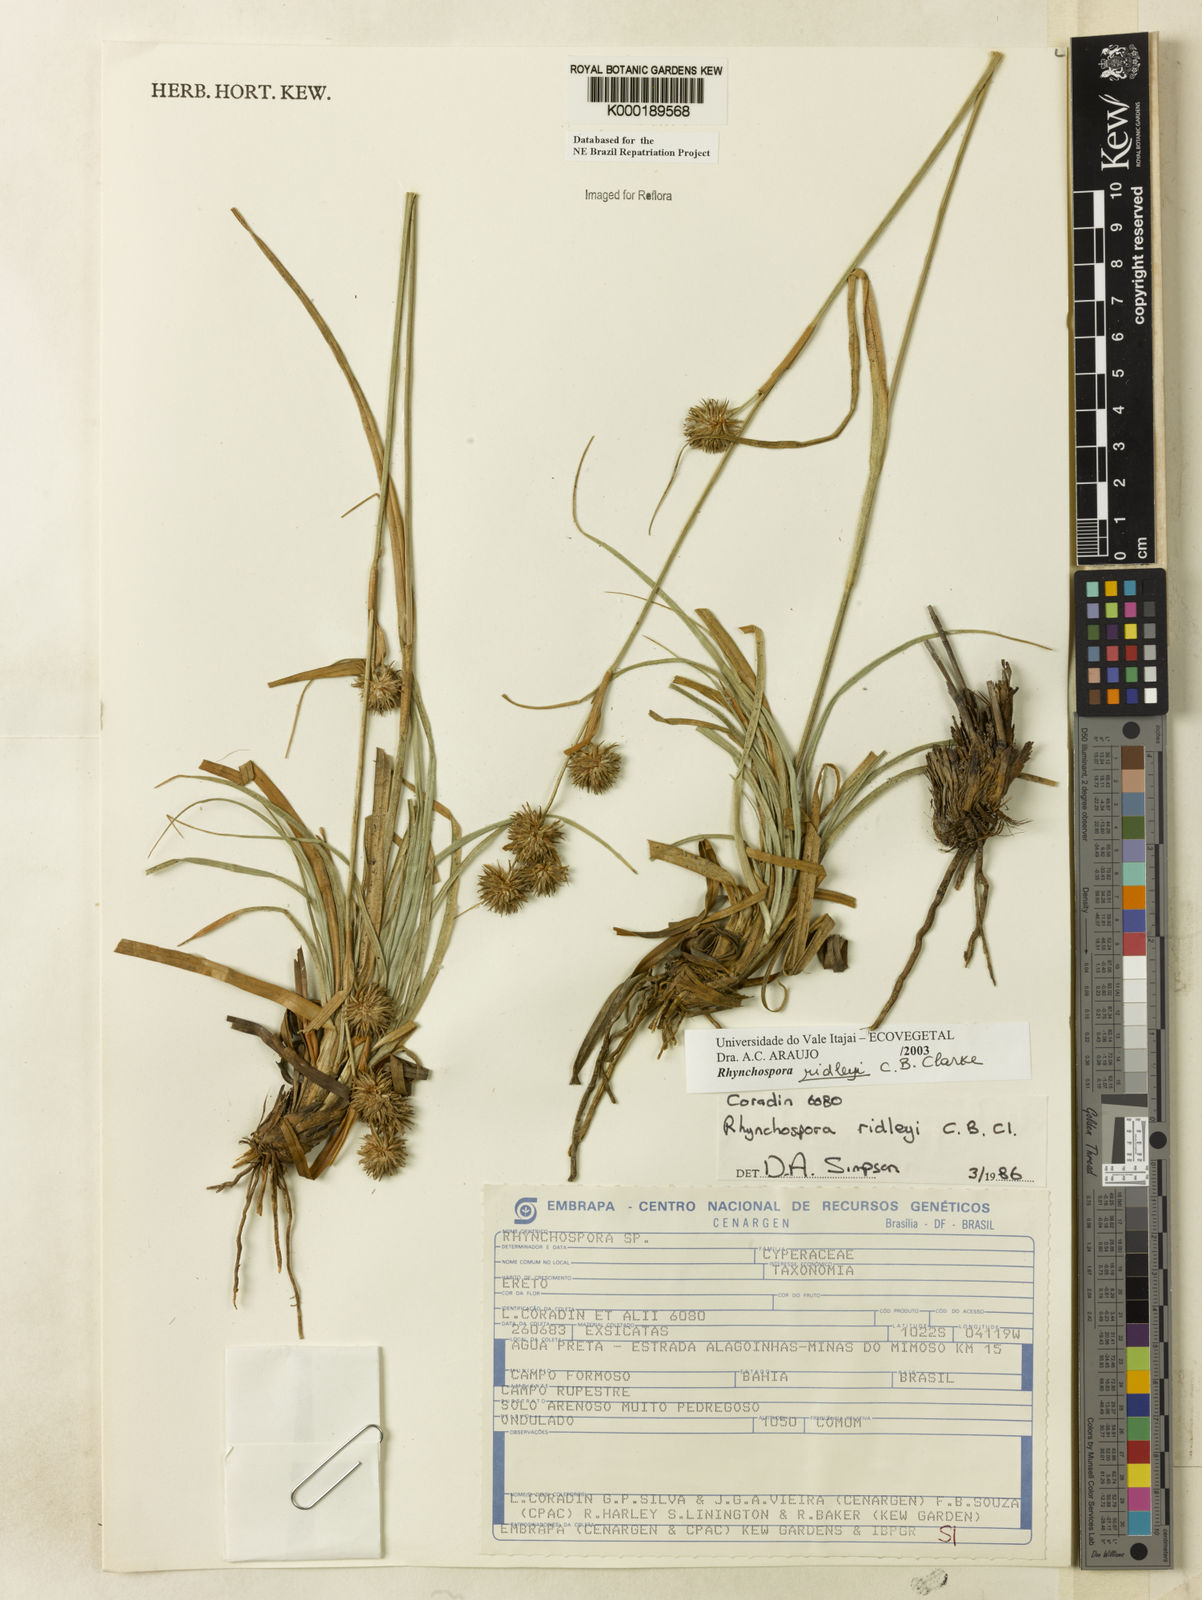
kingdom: Plantae
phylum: Tracheophyta
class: Liliopsida
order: Poales
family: Cyperaceae
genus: Rhynchospora
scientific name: Rhynchospora ridleyi
